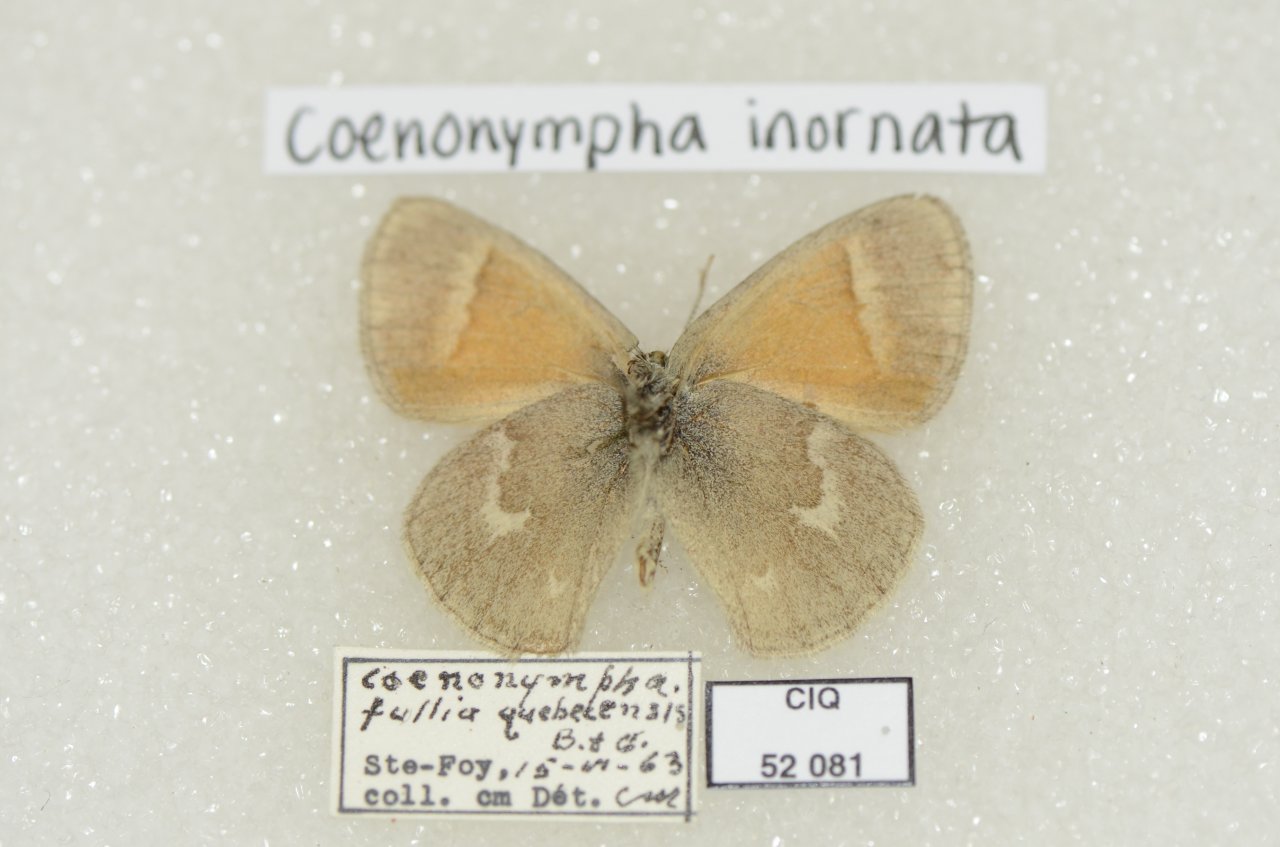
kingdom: Animalia
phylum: Arthropoda
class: Insecta
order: Lepidoptera
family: Nymphalidae
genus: Coenonympha
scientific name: Coenonympha tullia
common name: Large Heath
